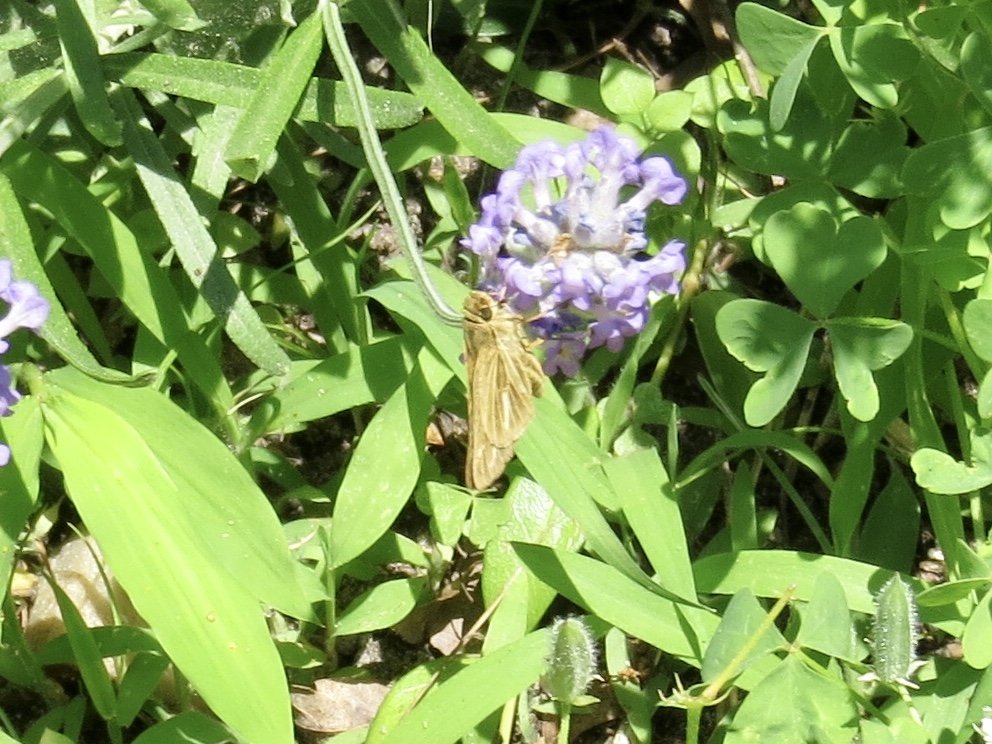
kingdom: Animalia
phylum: Arthropoda
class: Insecta
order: Lepidoptera
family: Hesperiidae
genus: Panoquina
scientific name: Panoquina panoquin
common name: Salt Marsh Skipper
